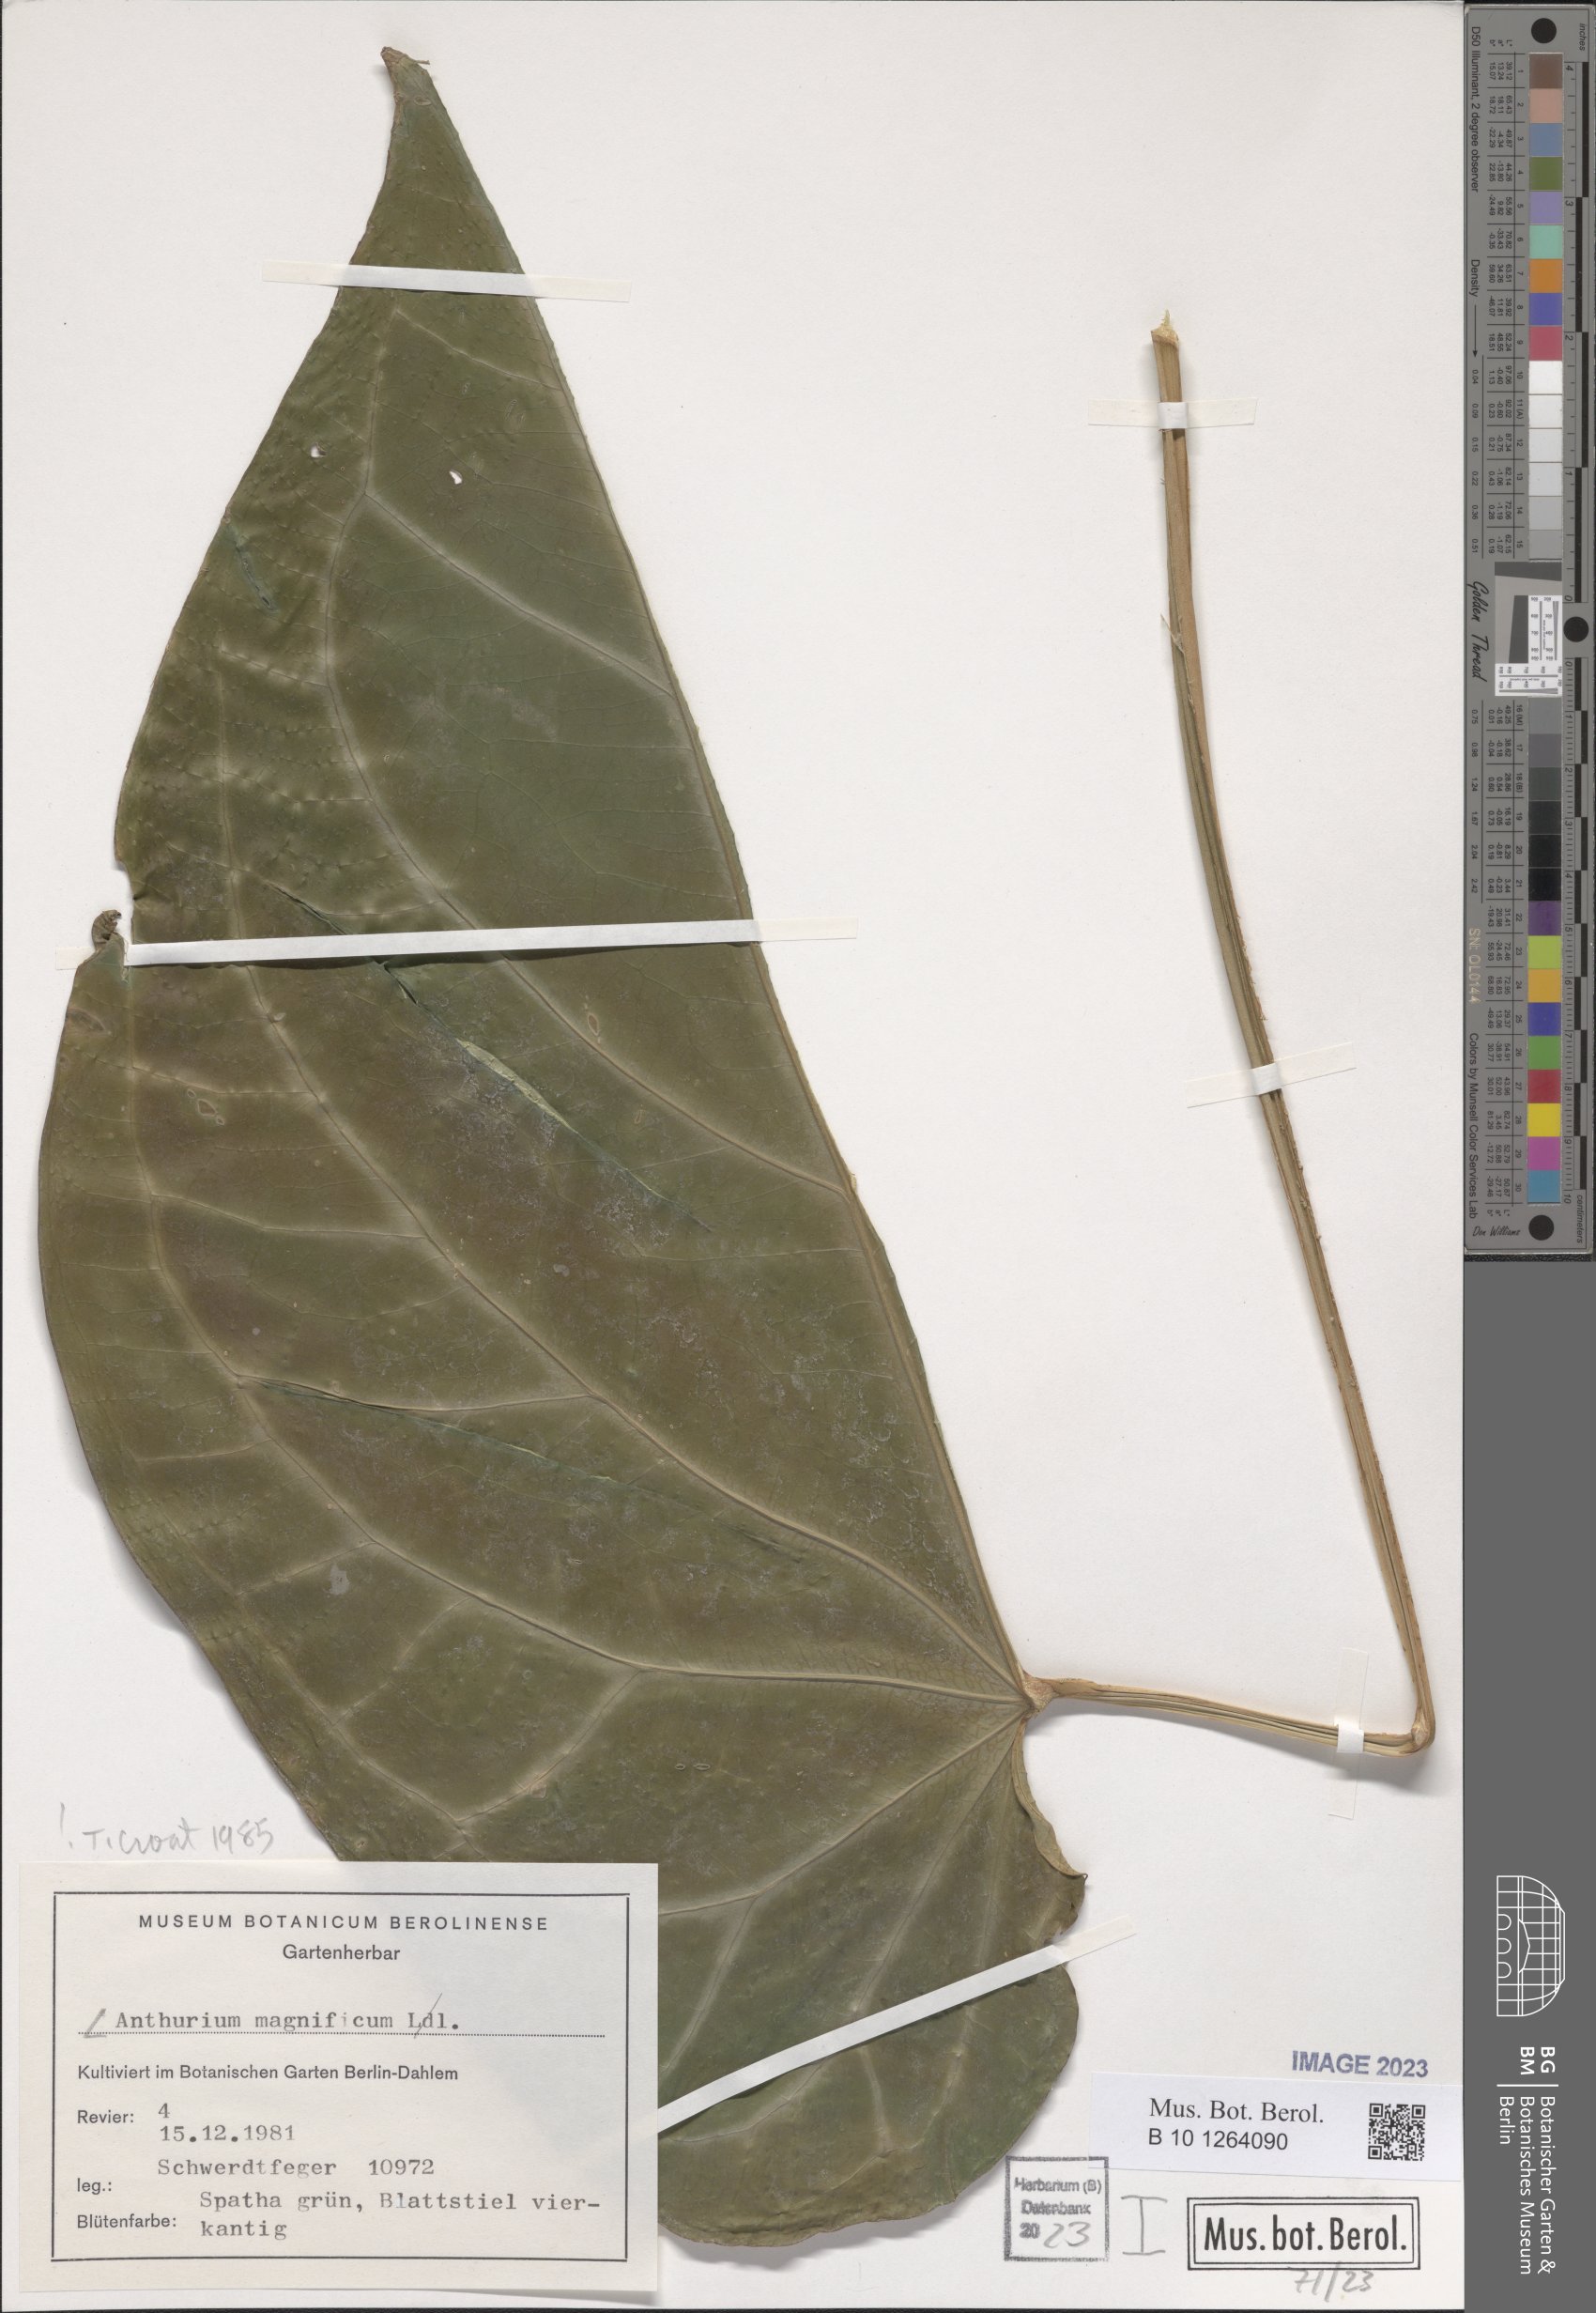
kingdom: Plantae
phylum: Tracheophyta
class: Liliopsida
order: Alismatales
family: Araceae
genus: Anthurium
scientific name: Anthurium magnificum
